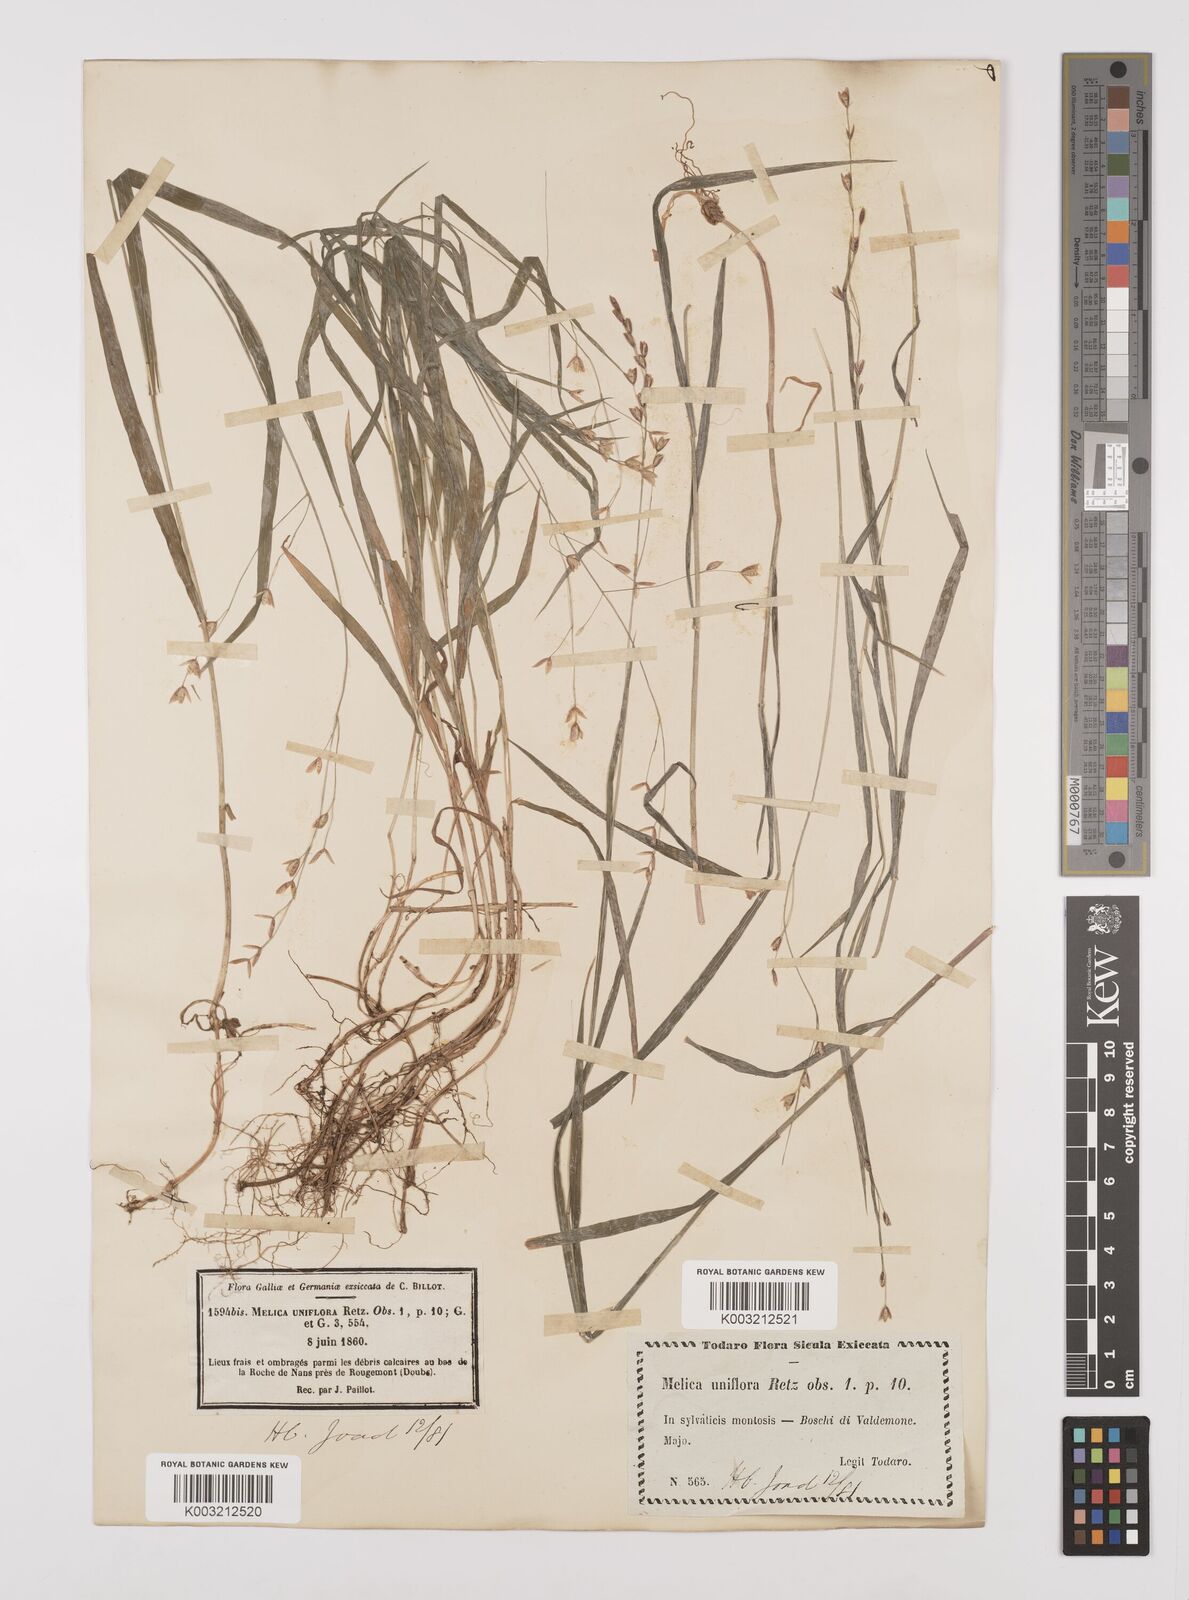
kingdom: Plantae
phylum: Tracheophyta
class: Liliopsida
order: Poales
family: Poaceae
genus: Melica
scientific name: Melica uniflora
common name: Wood melick
